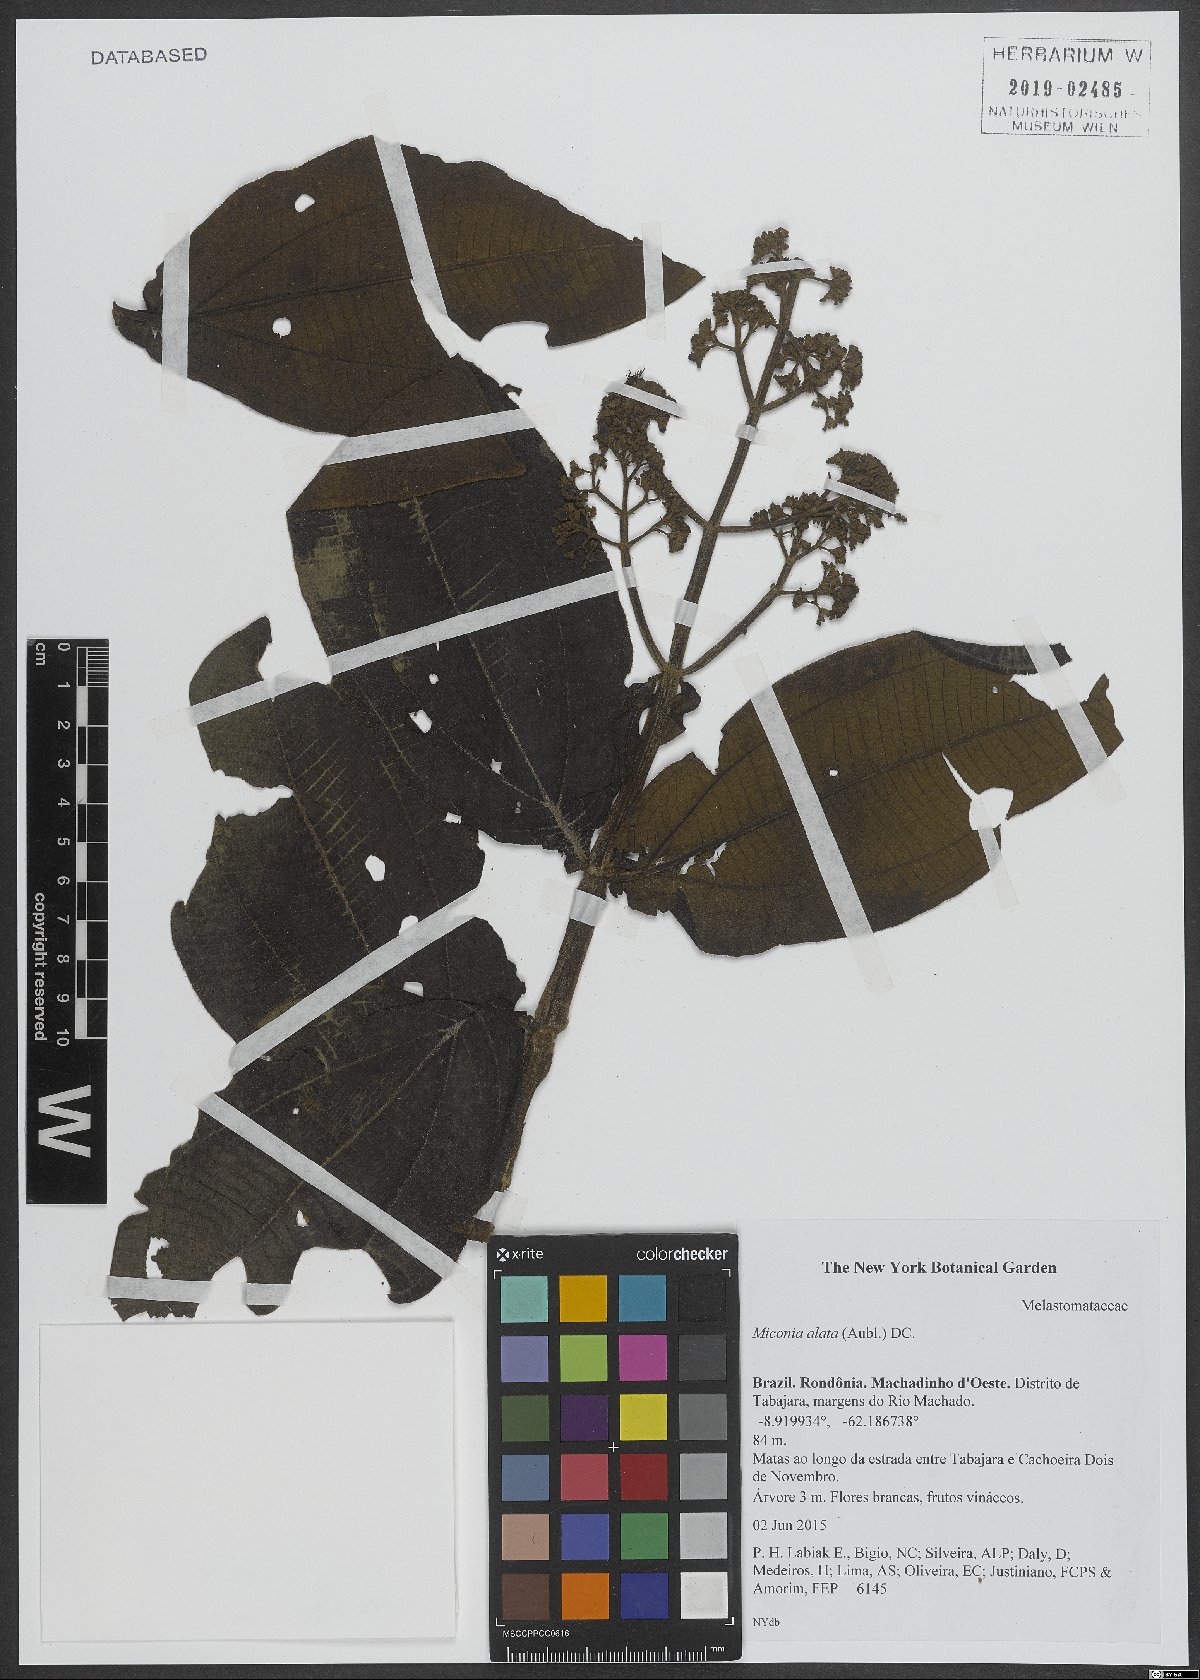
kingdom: Plantae
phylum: Tracheophyta
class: Magnoliopsida
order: Myrtales
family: Melastomataceae
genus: Miconia
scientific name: Miconia alata
